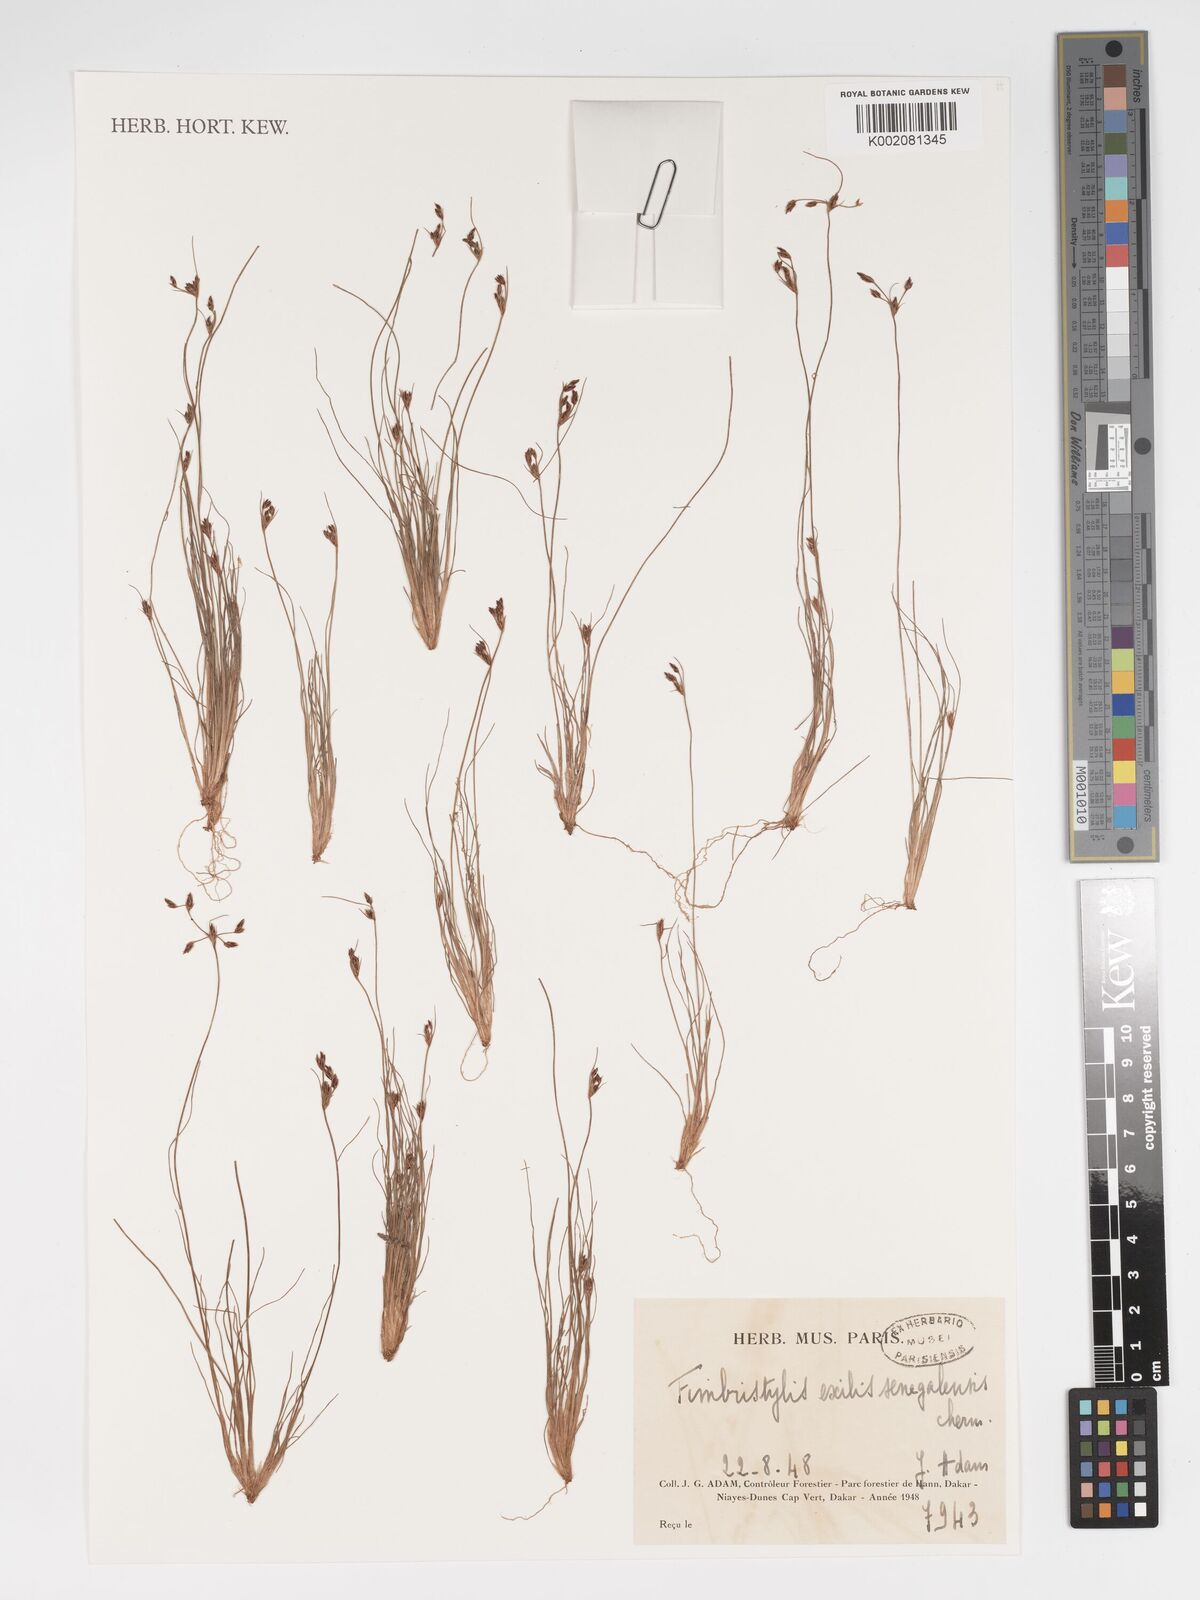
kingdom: Plantae
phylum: Tracheophyta
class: Liliopsida
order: Poales
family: Cyperaceae
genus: Bulbostylis
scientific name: Bulbostylis hispidula
